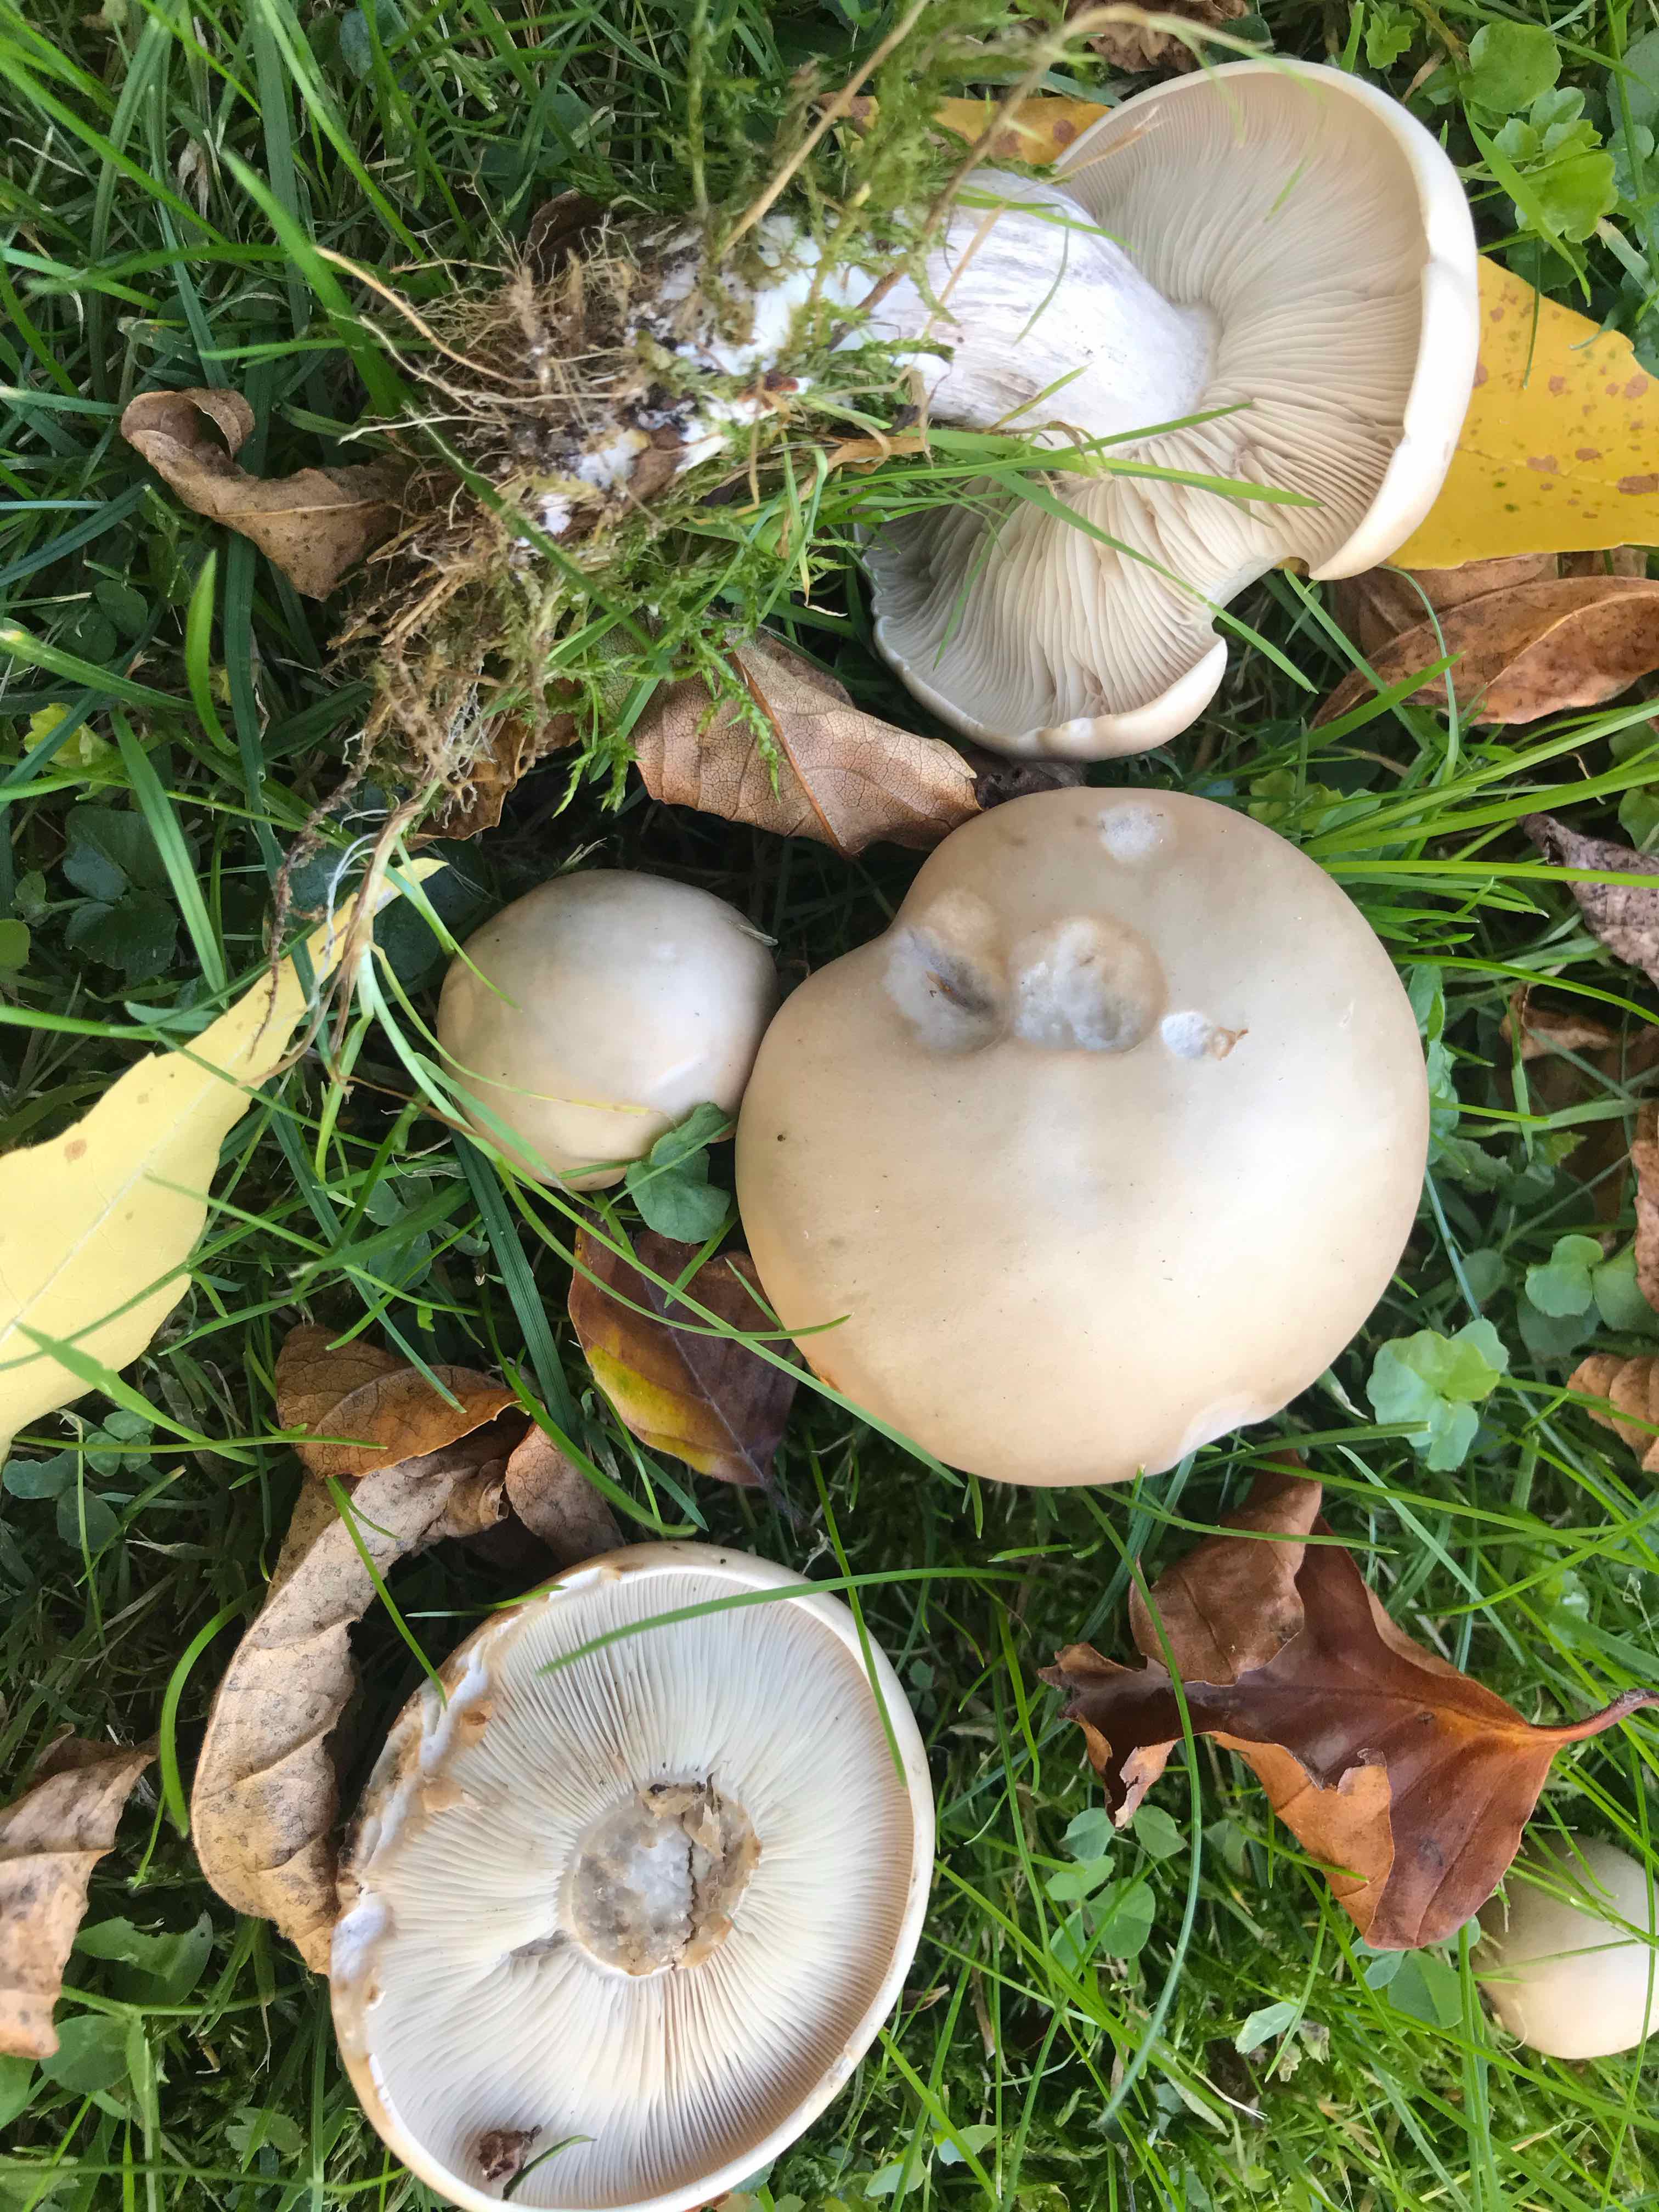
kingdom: Fungi
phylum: Basidiomycota
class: Agaricomycetes
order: Agaricales
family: Tricholomataceae
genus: Lepista
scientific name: Lepista personata
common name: bleg hekseringshat
